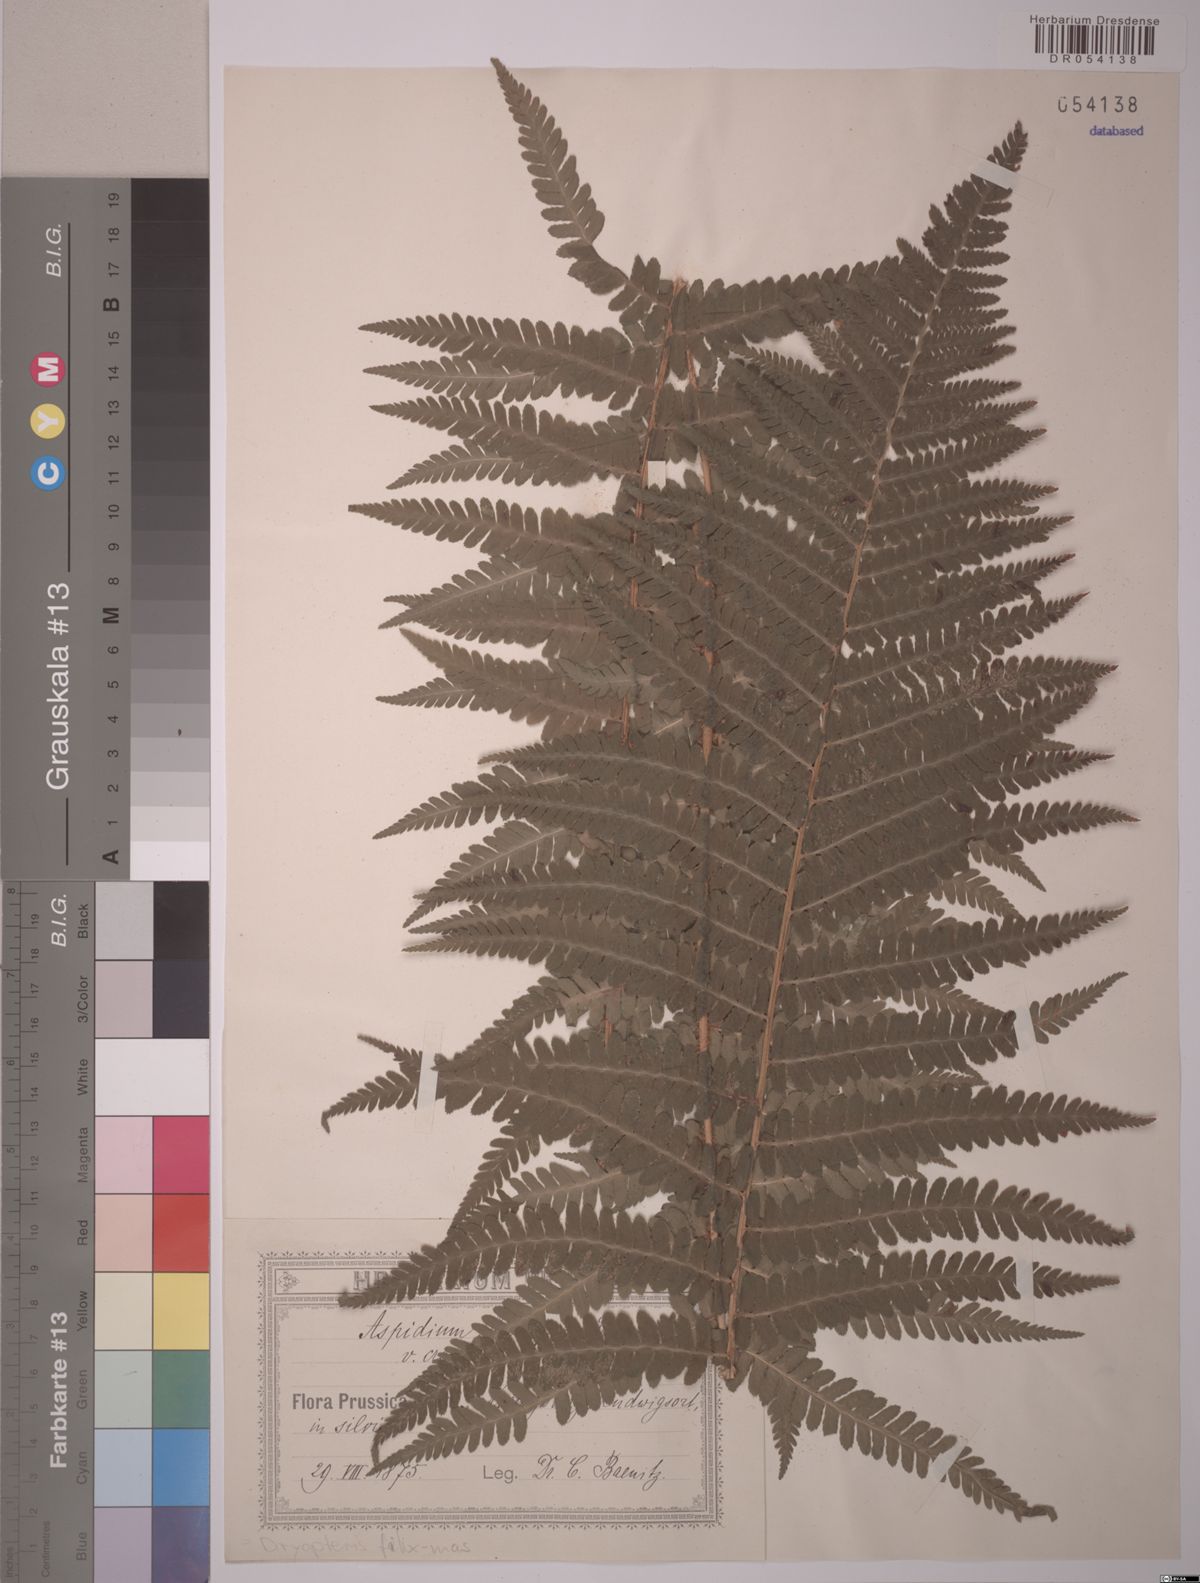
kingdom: Plantae
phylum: Tracheophyta
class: Polypodiopsida
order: Polypodiales
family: Dryopteridaceae
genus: Dryopteris
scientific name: Dryopteris filix-mas
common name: Male fern
